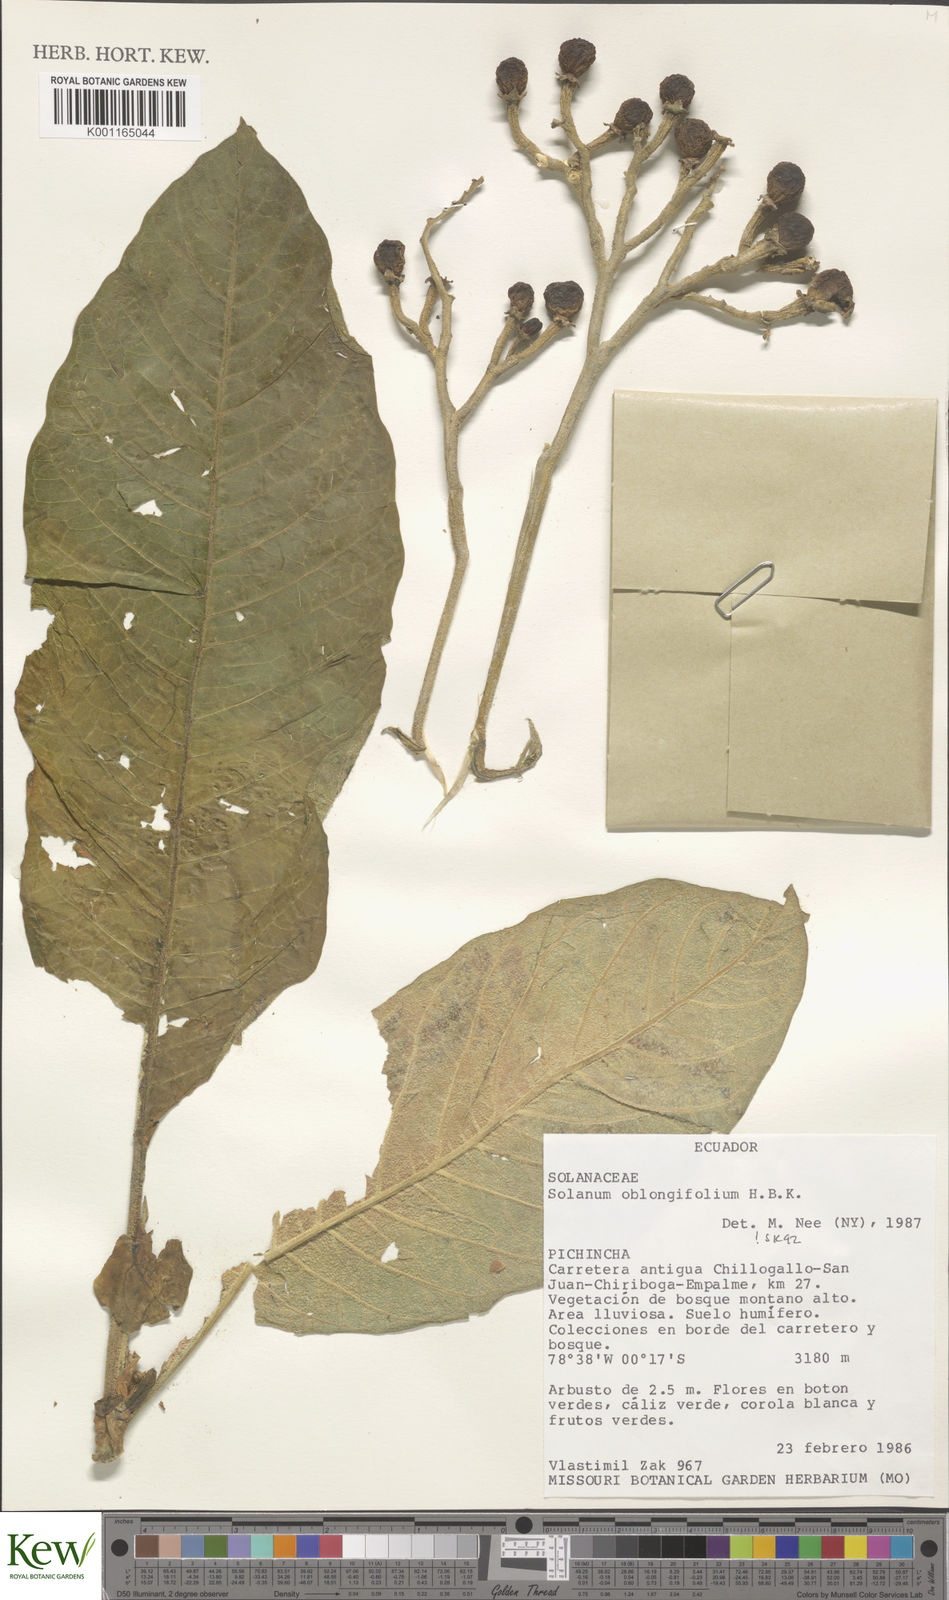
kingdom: Plantae
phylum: Tracheophyta
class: Magnoliopsida
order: Solanales
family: Solanaceae
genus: Solanum
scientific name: Solanum oblongifolium
